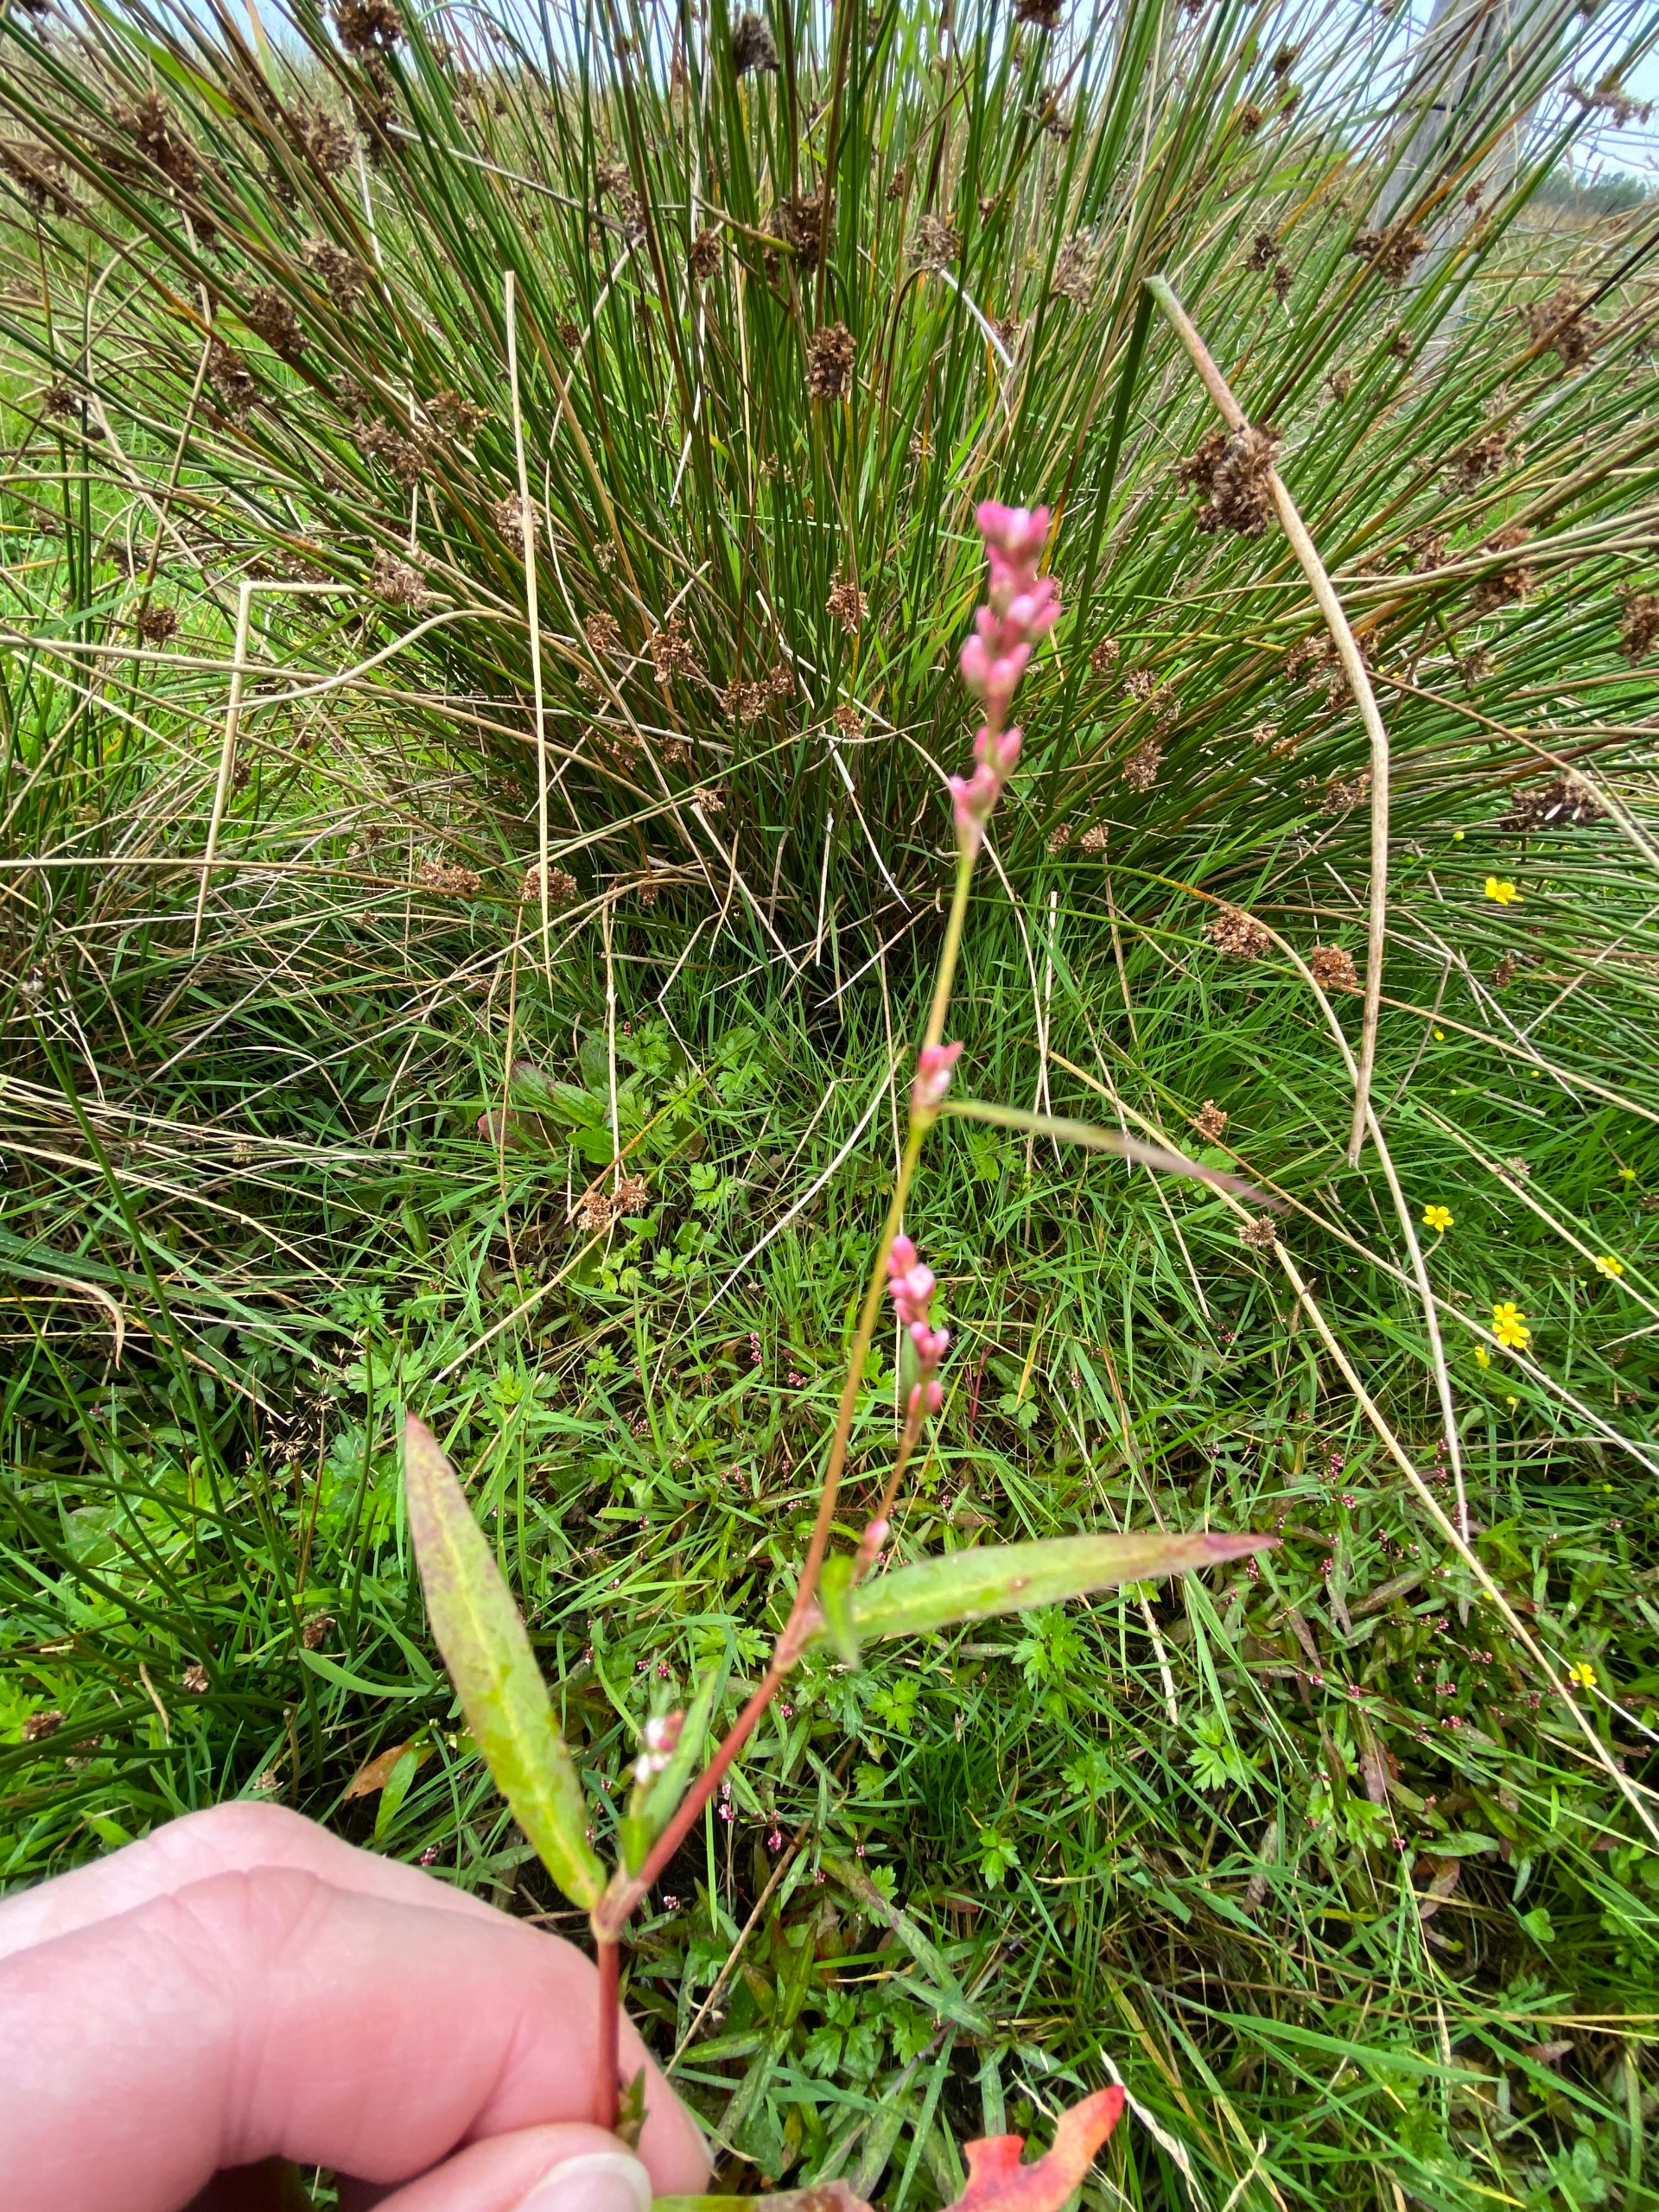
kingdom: Plantae
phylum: Tracheophyta
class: Magnoliopsida
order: Caryophyllales
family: Polygonaceae
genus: Persicaria
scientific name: Persicaria maculosa
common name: Fersken-pileurt
